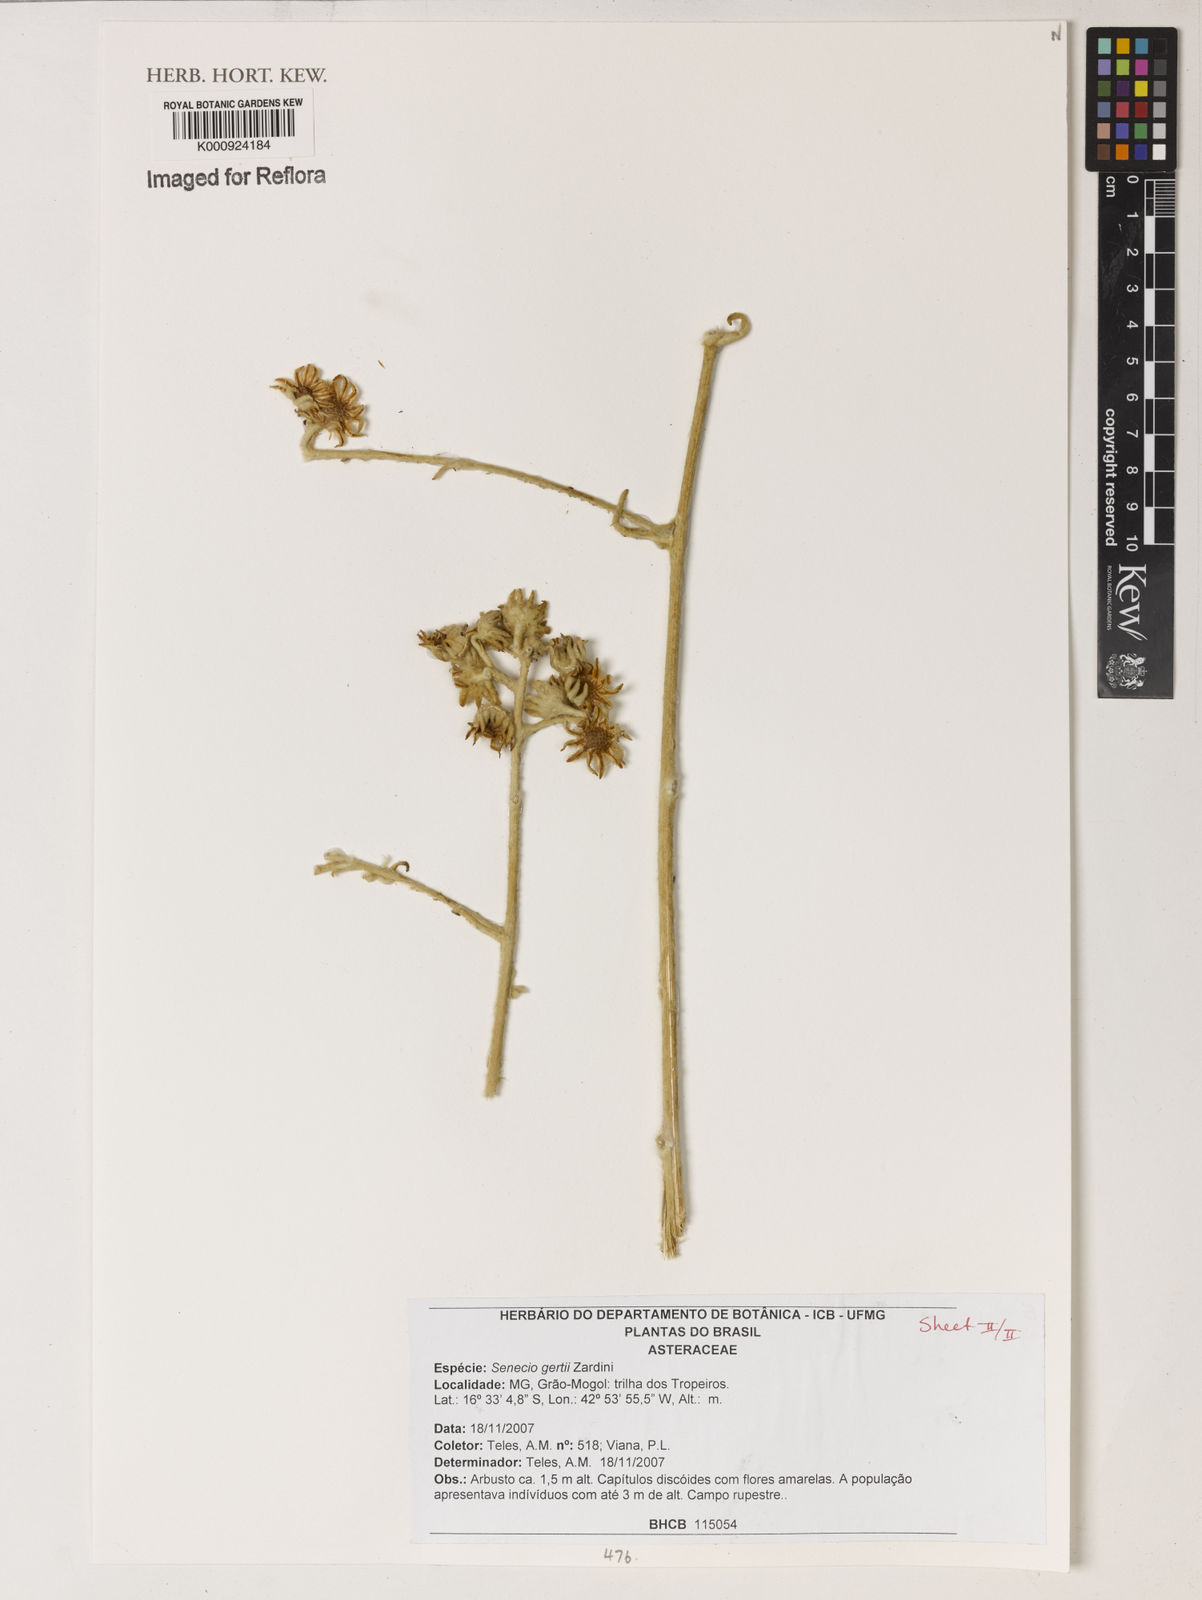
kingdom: Plantae
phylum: Tracheophyta
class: Magnoliopsida
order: Asterales
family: Asteraceae
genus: Senecio
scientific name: Senecio gertii
